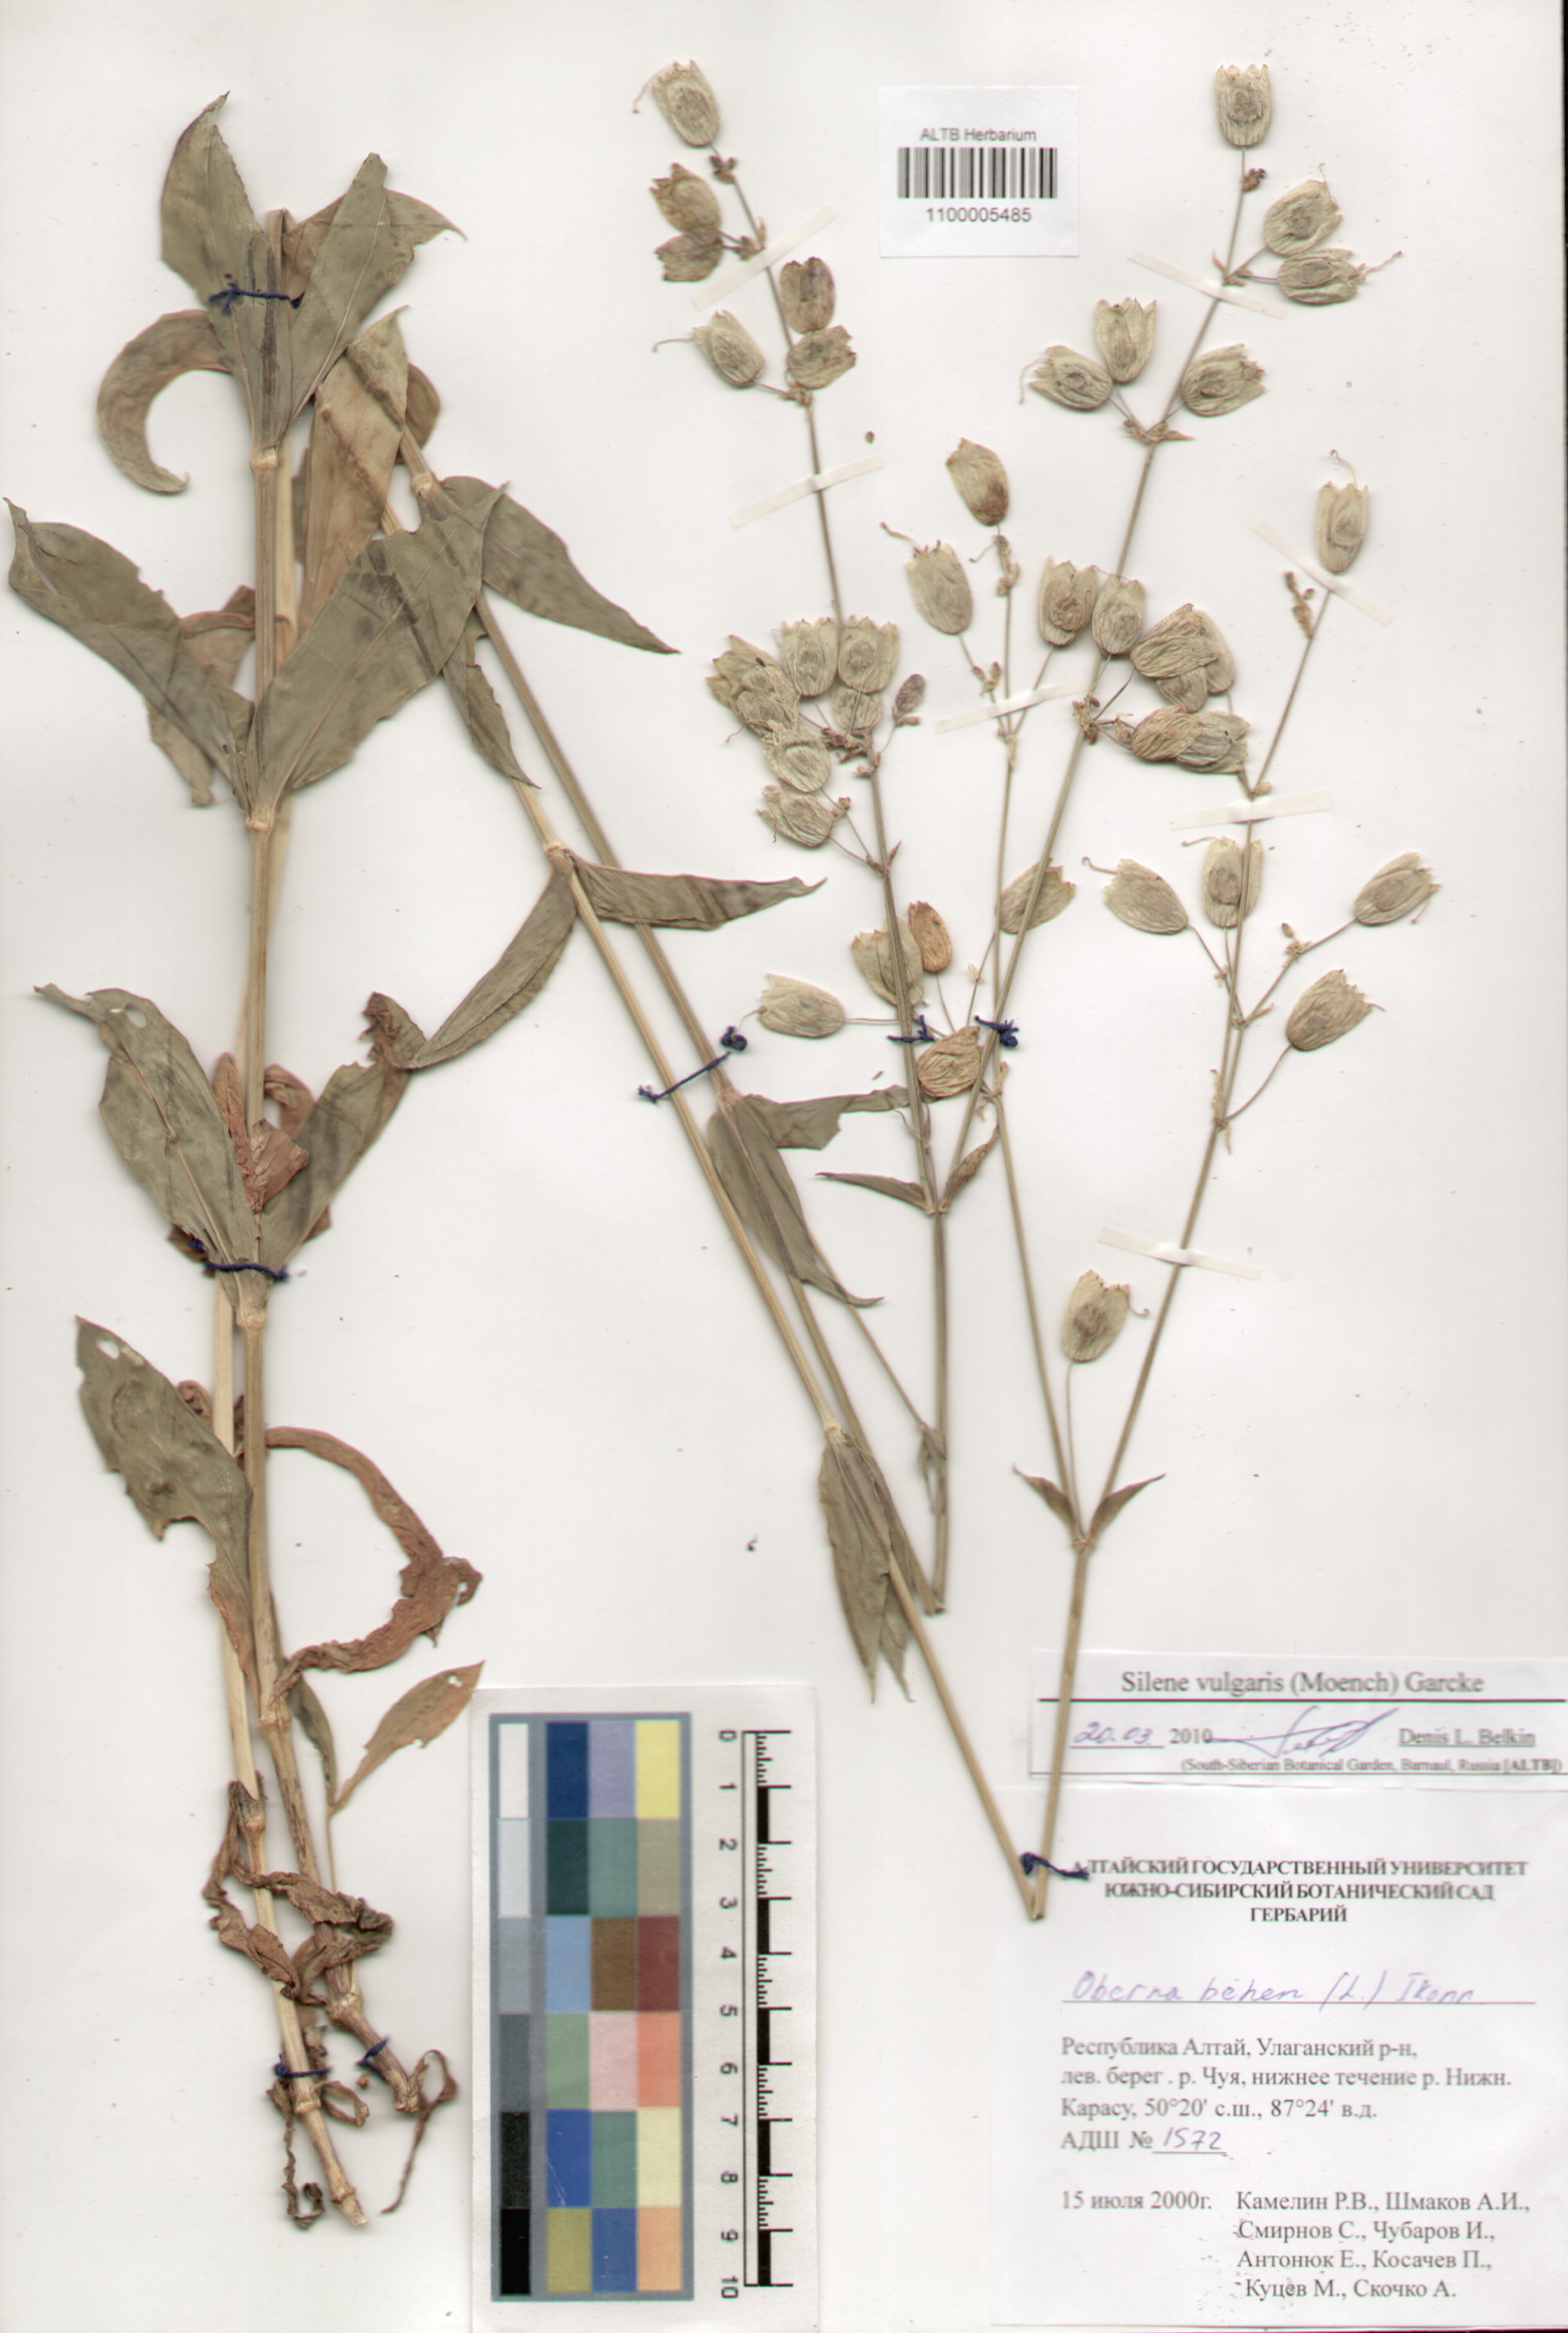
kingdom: Plantae
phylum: Tracheophyta
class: Magnoliopsida
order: Caryophyllales
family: Caryophyllaceae
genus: Silene
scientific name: Silene vulgaris
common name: Bladder campion
